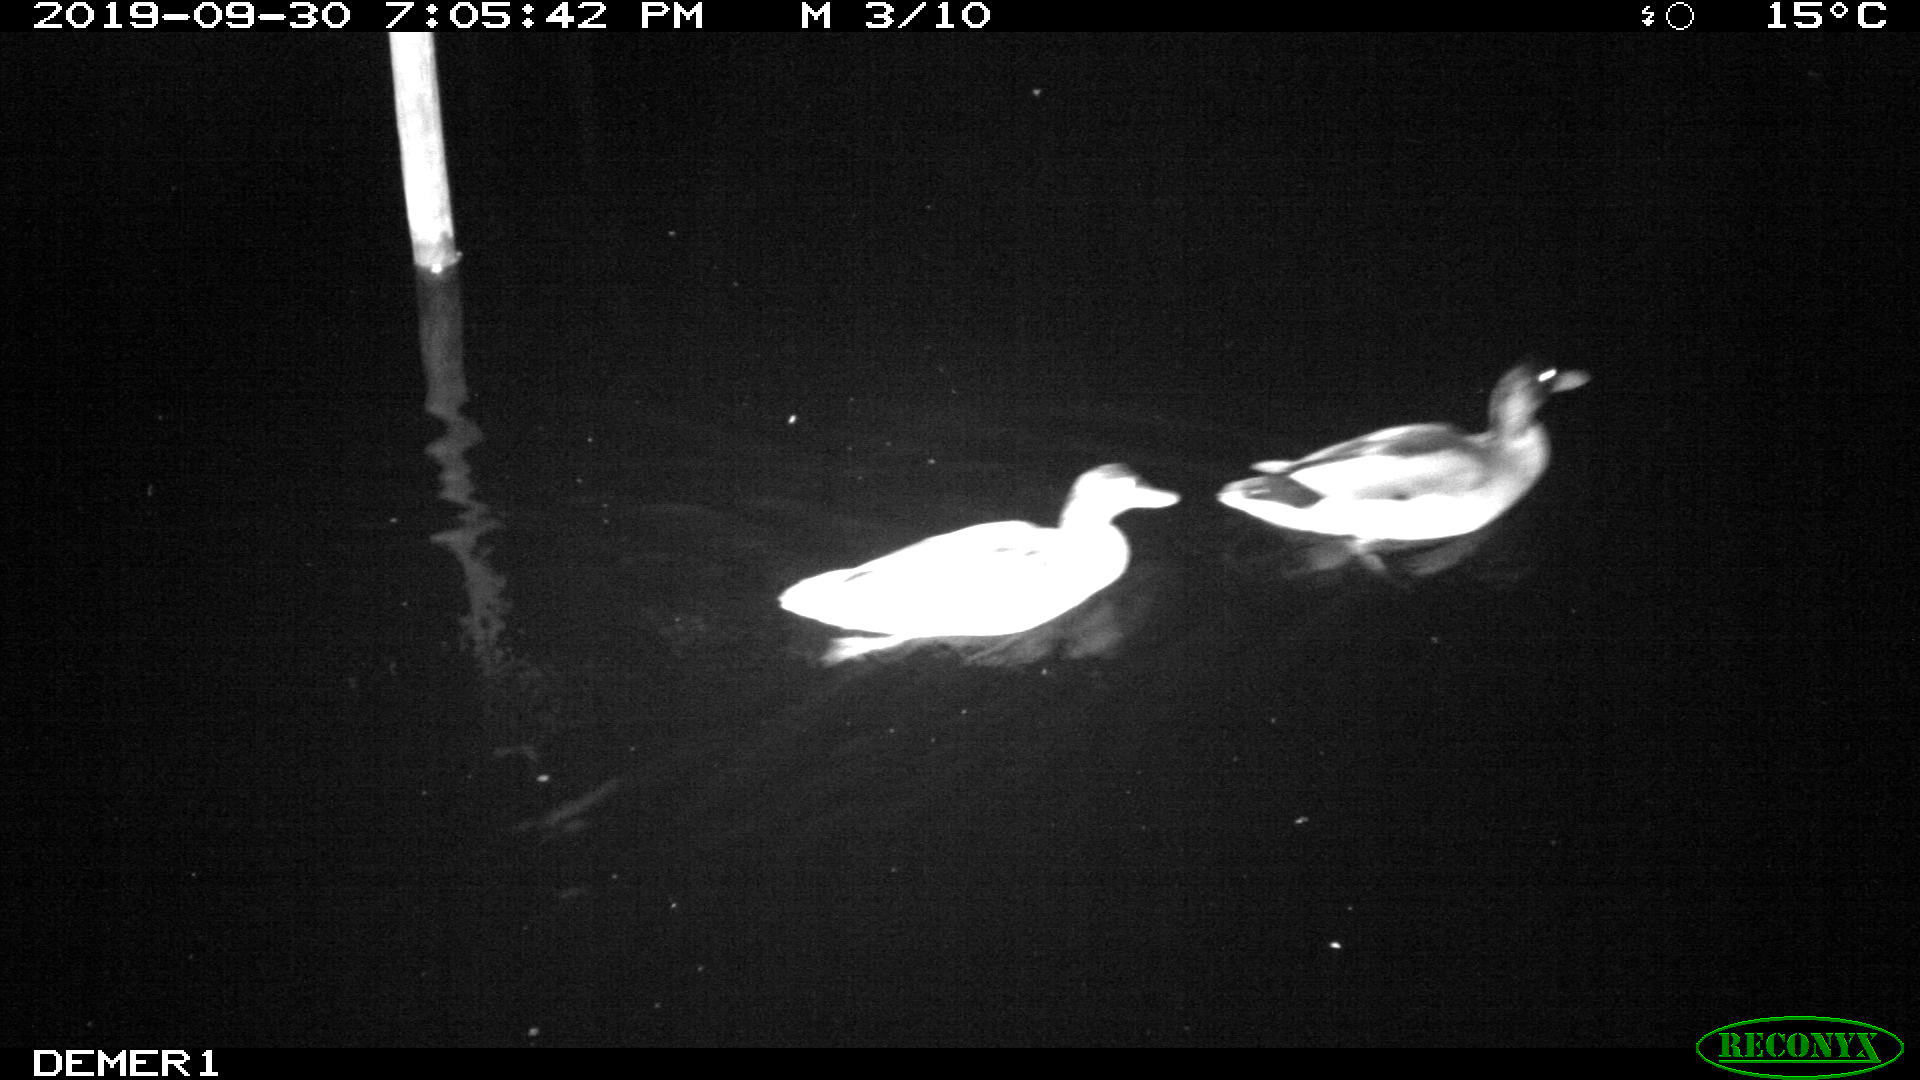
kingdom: Animalia
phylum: Chordata
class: Aves
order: Anseriformes
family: Anatidae
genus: Anas
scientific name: Anas platyrhynchos
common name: Mallard
